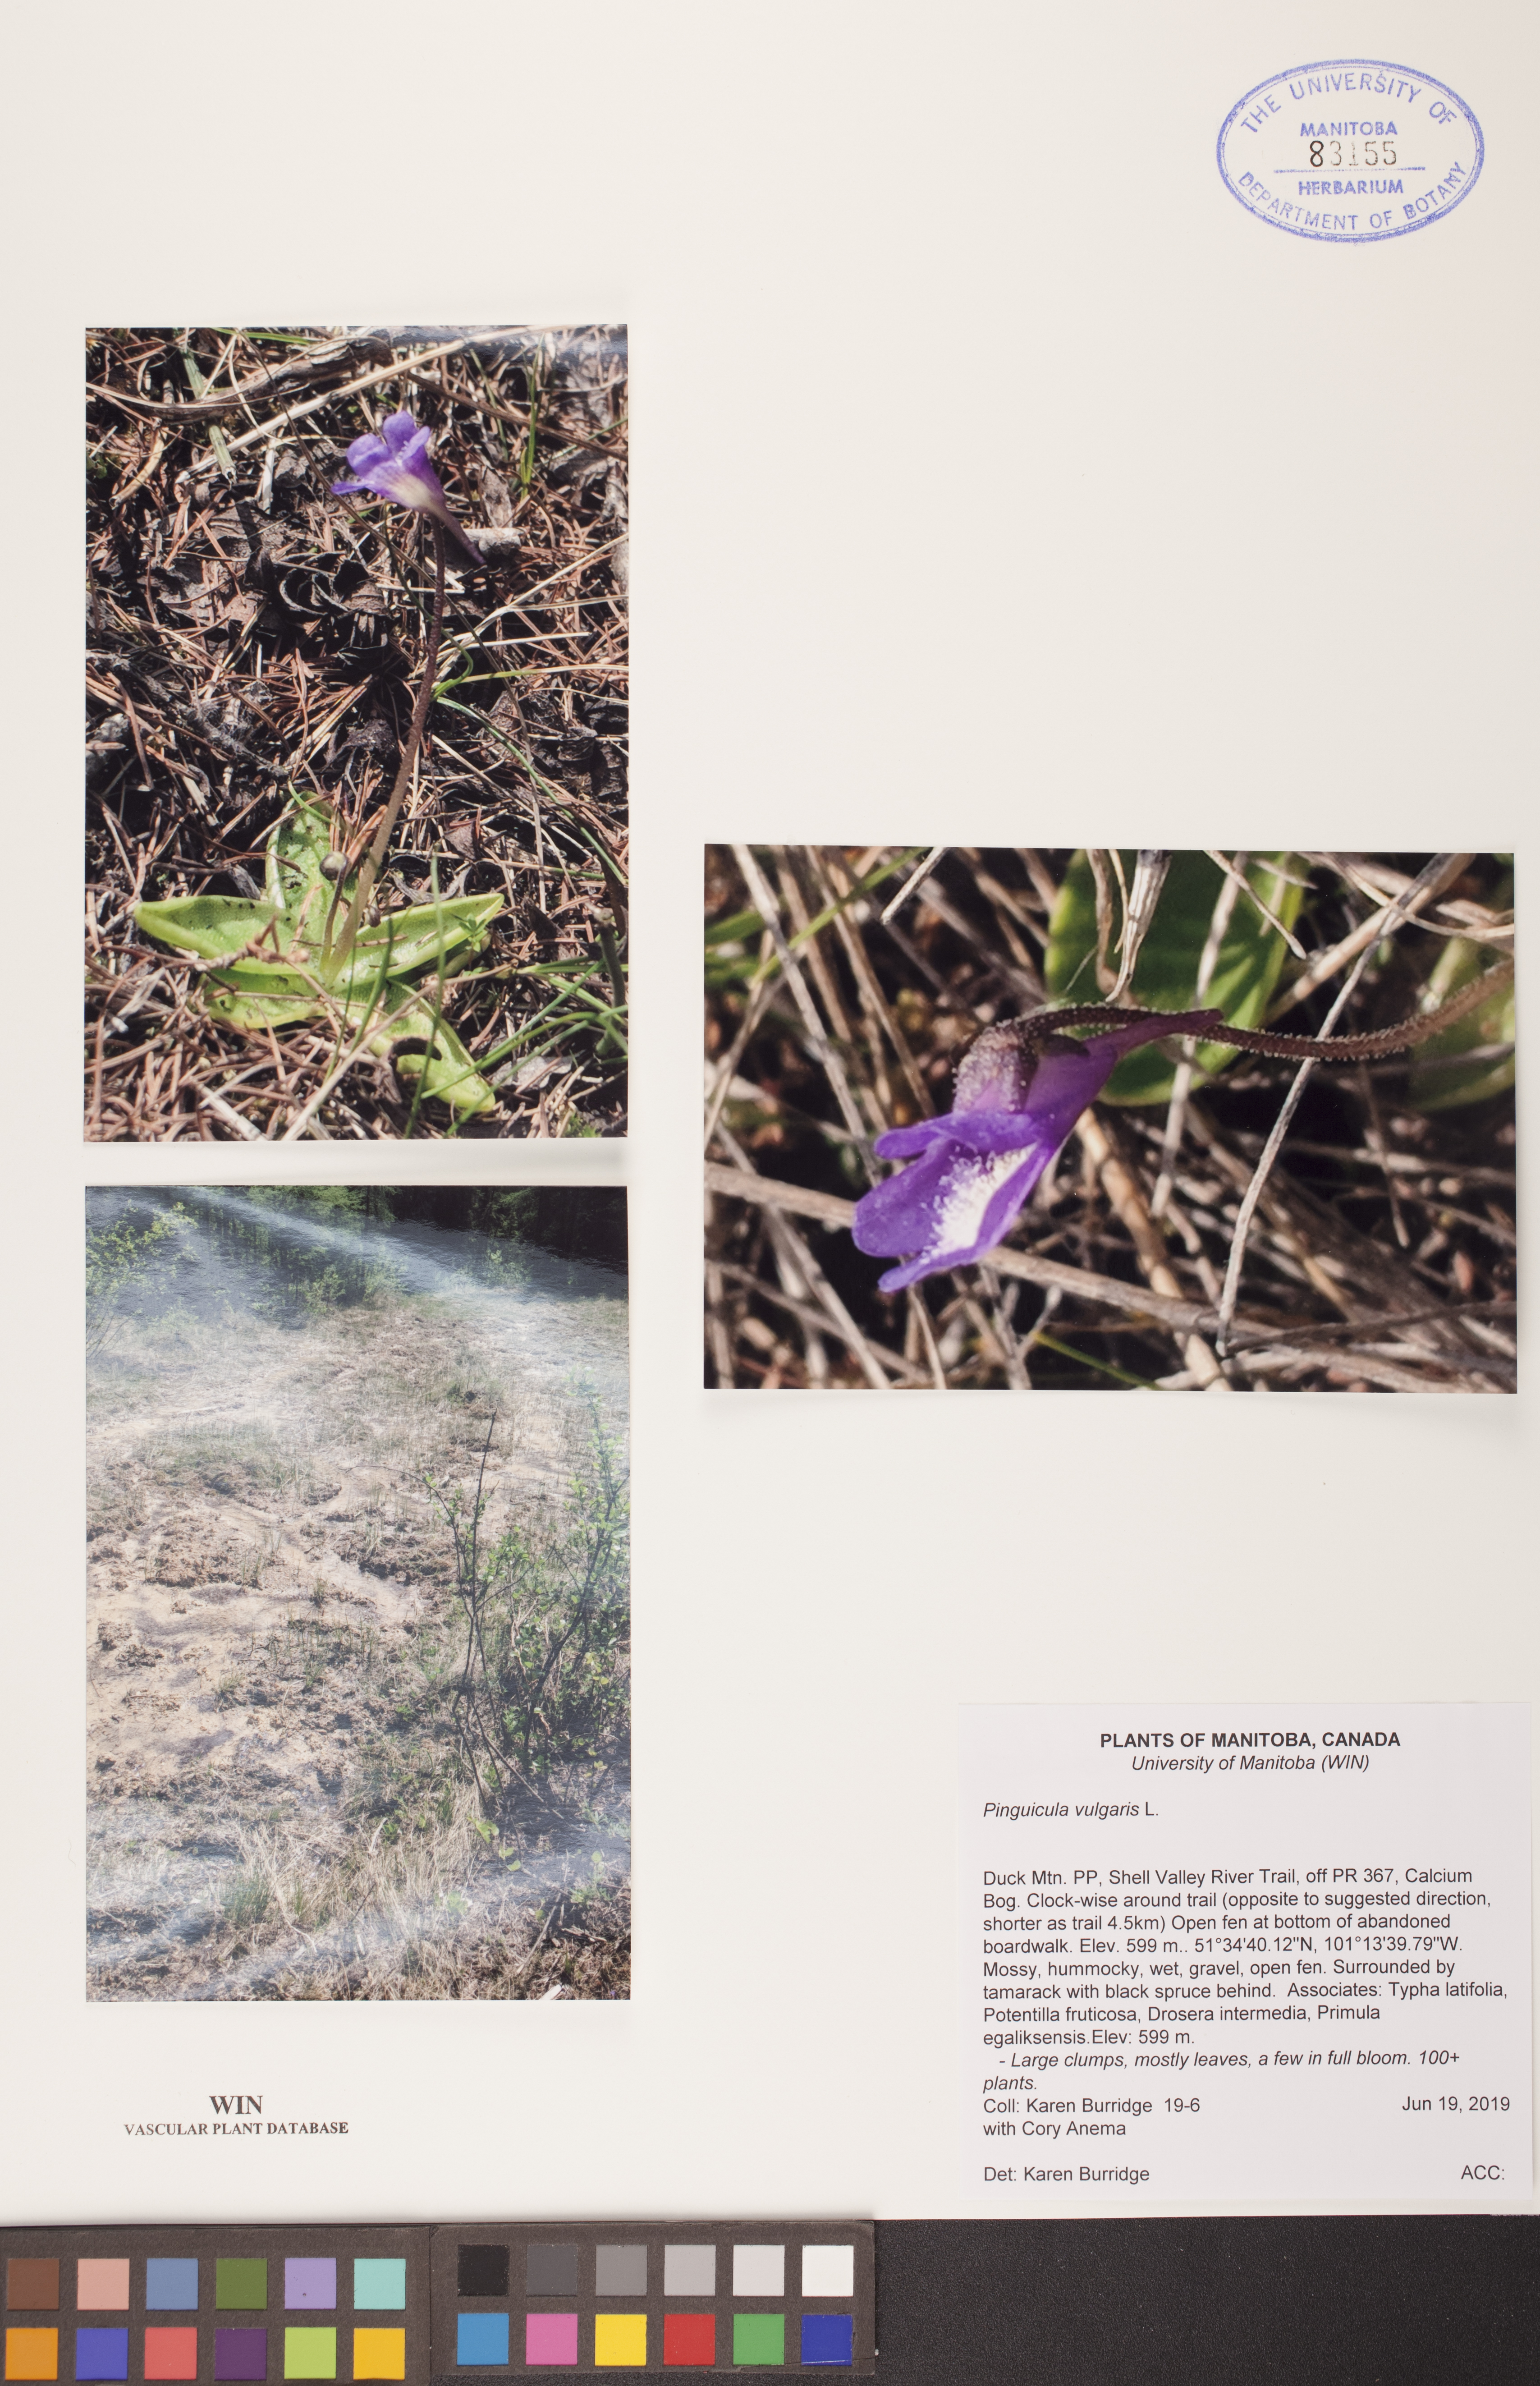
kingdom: Plantae
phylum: Tracheophyta
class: Magnoliopsida
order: Lamiales
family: Lentibulariaceae
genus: Pinguicula
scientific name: Pinguicula vulgaris
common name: Common butterwort
